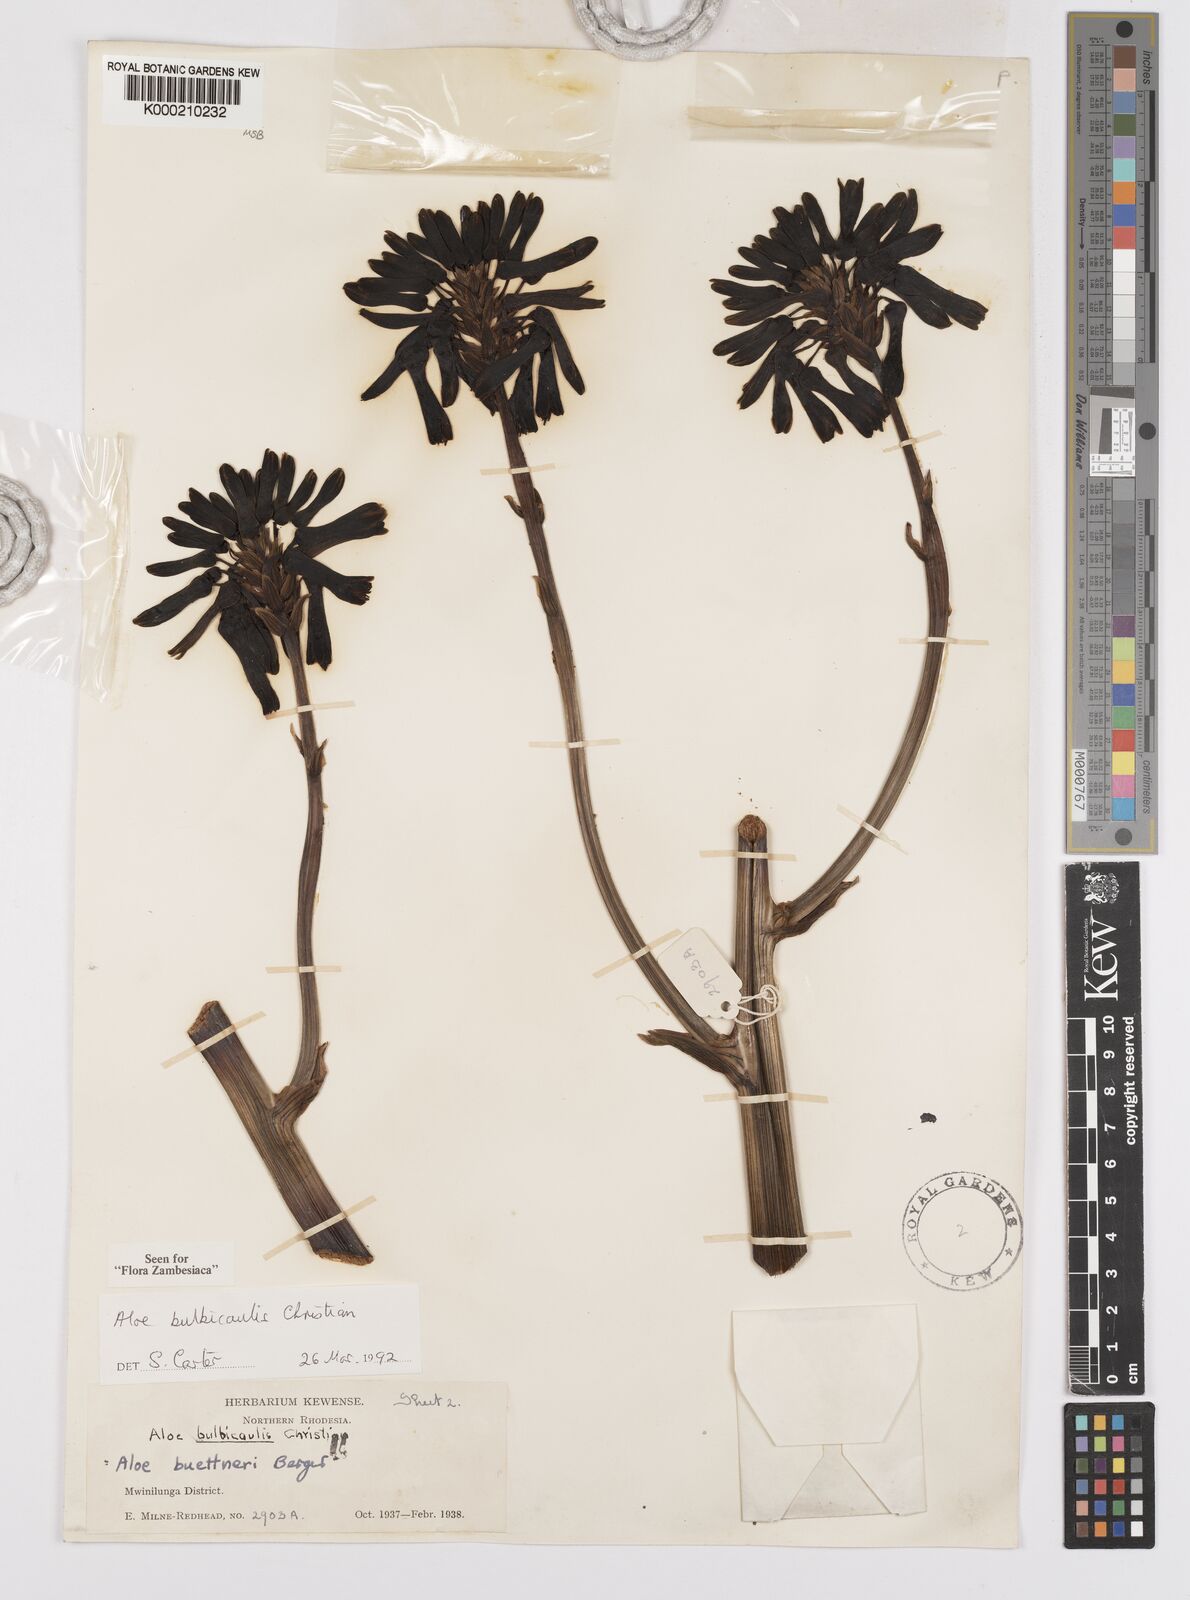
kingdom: Plantae
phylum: Tracheophyta
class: Liliopsida
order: Asparagales
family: Asphodelaceae
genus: Aloe
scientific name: Aloe bulbicaulis
